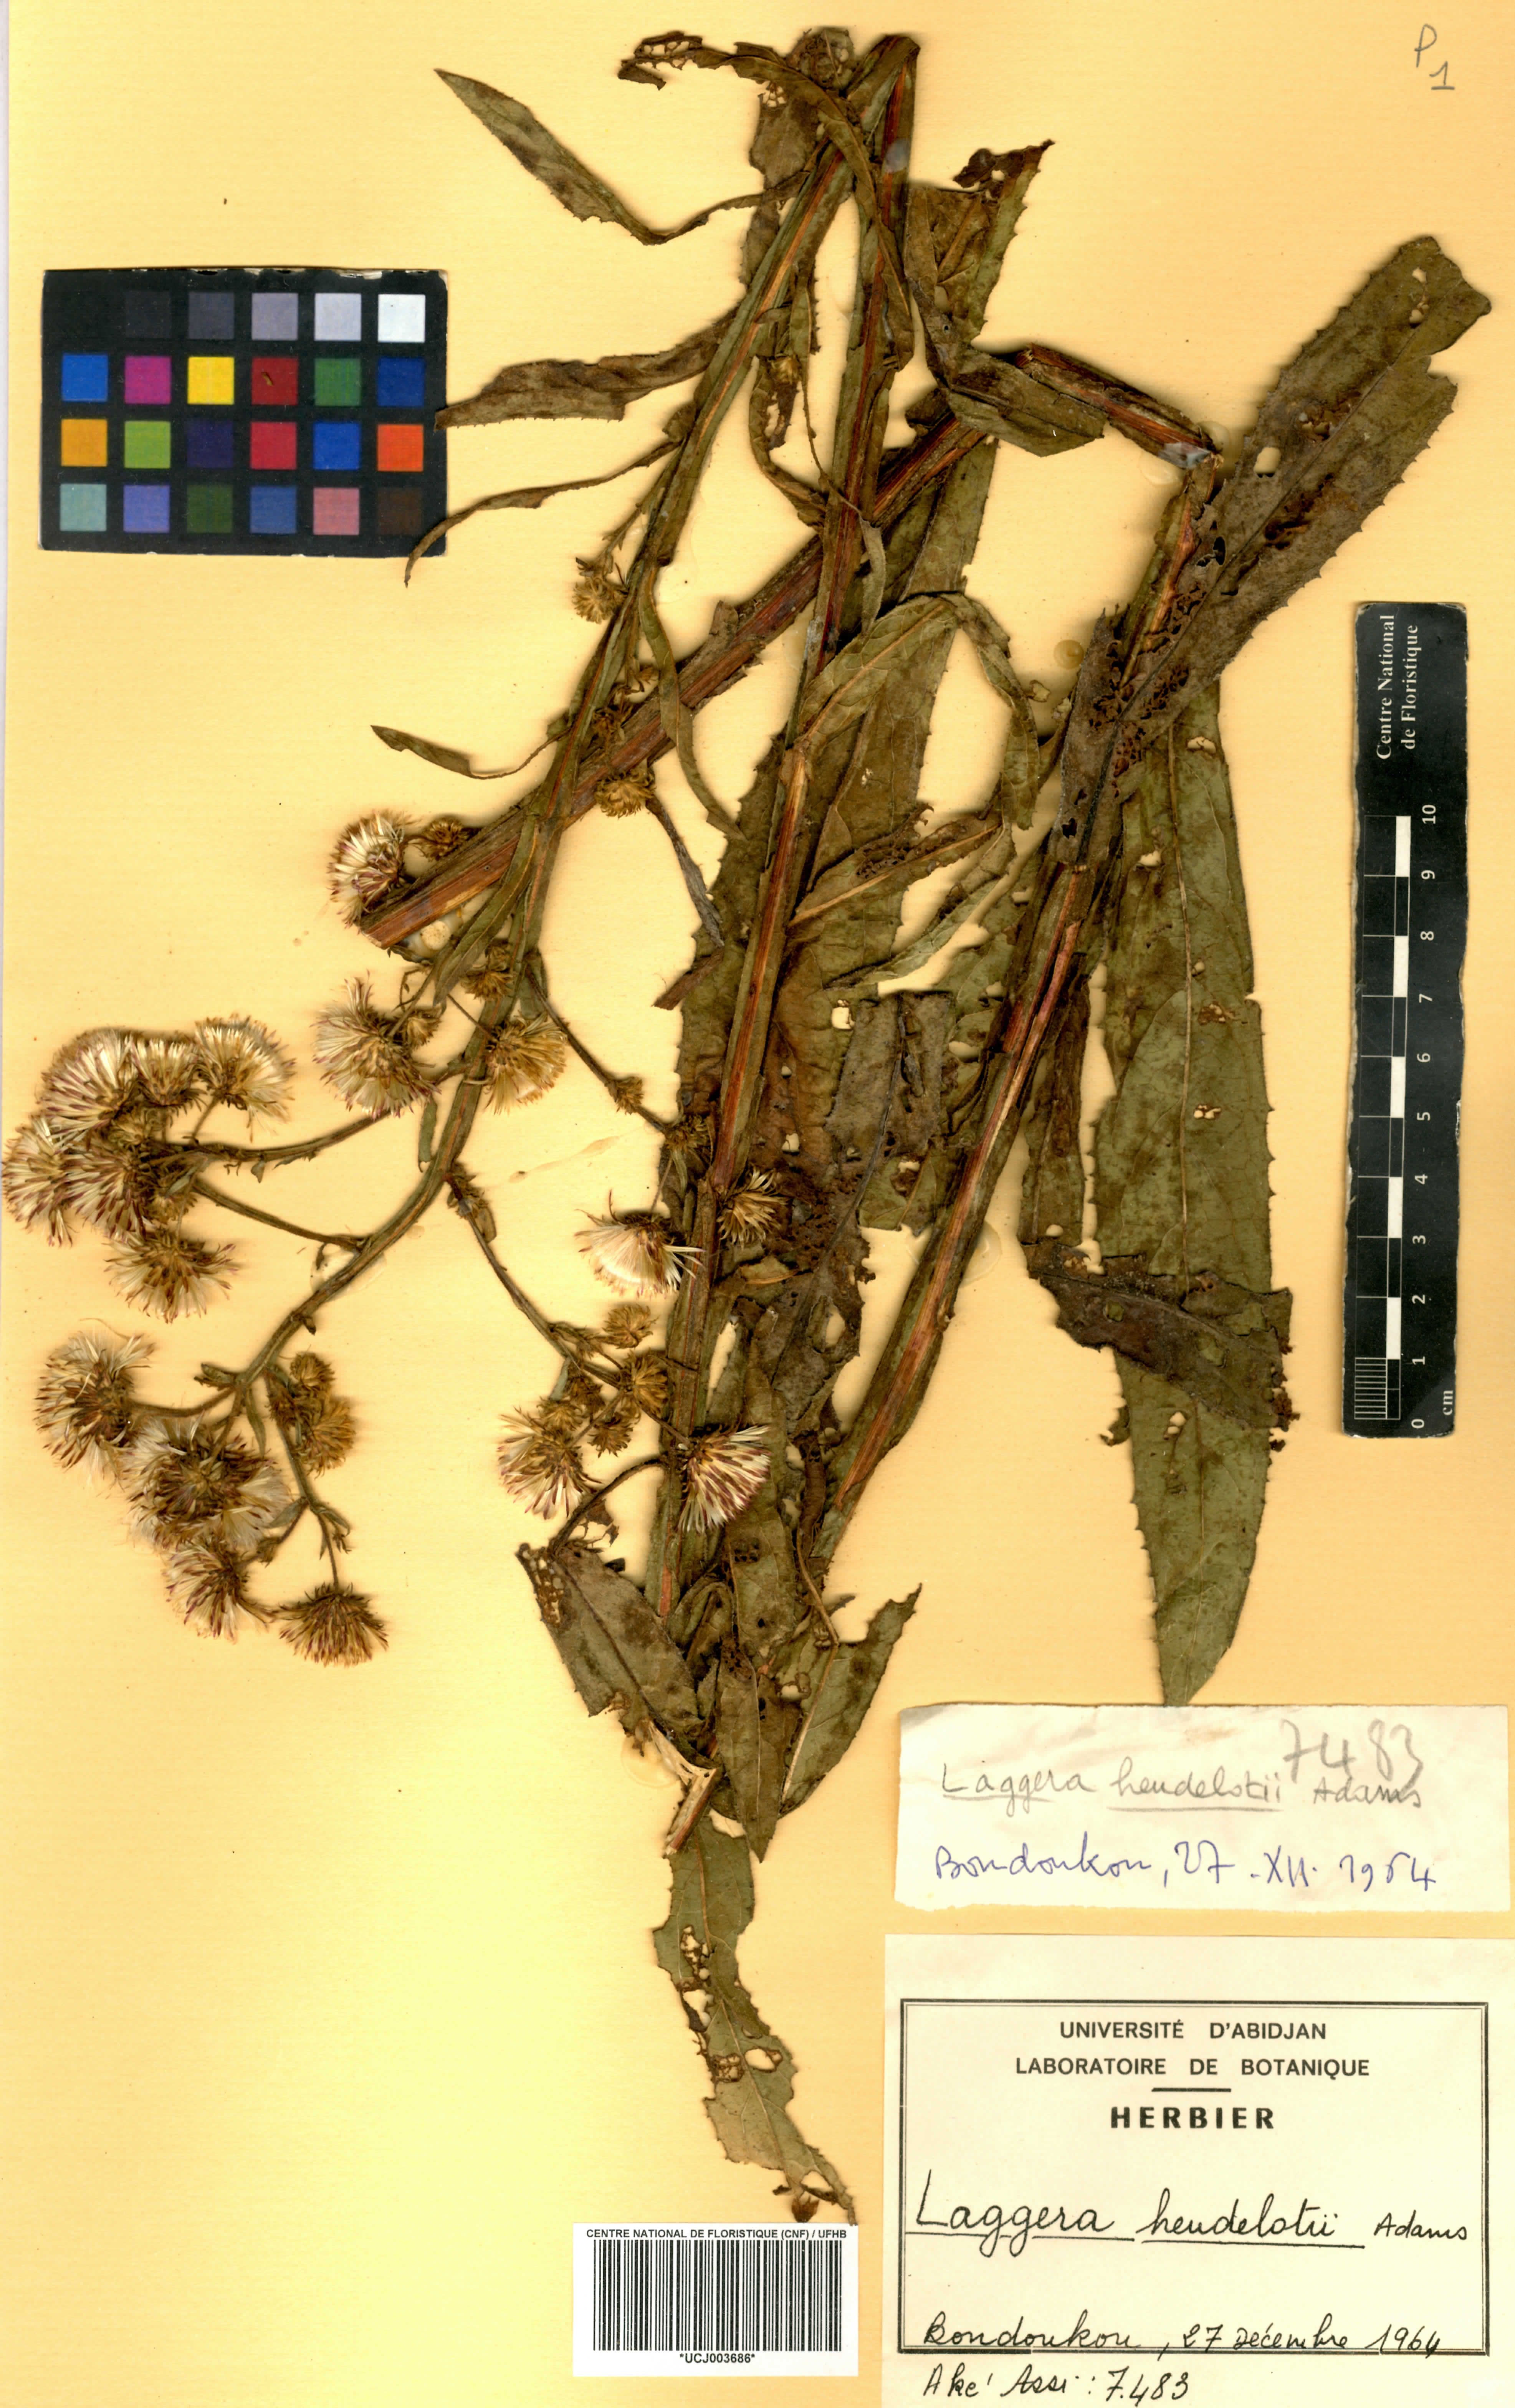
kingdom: Plantae
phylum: Tracheophyta
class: Magnoliopsida
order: Asterales
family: Asteraceae
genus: Laggera
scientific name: Laggera heudelotii
